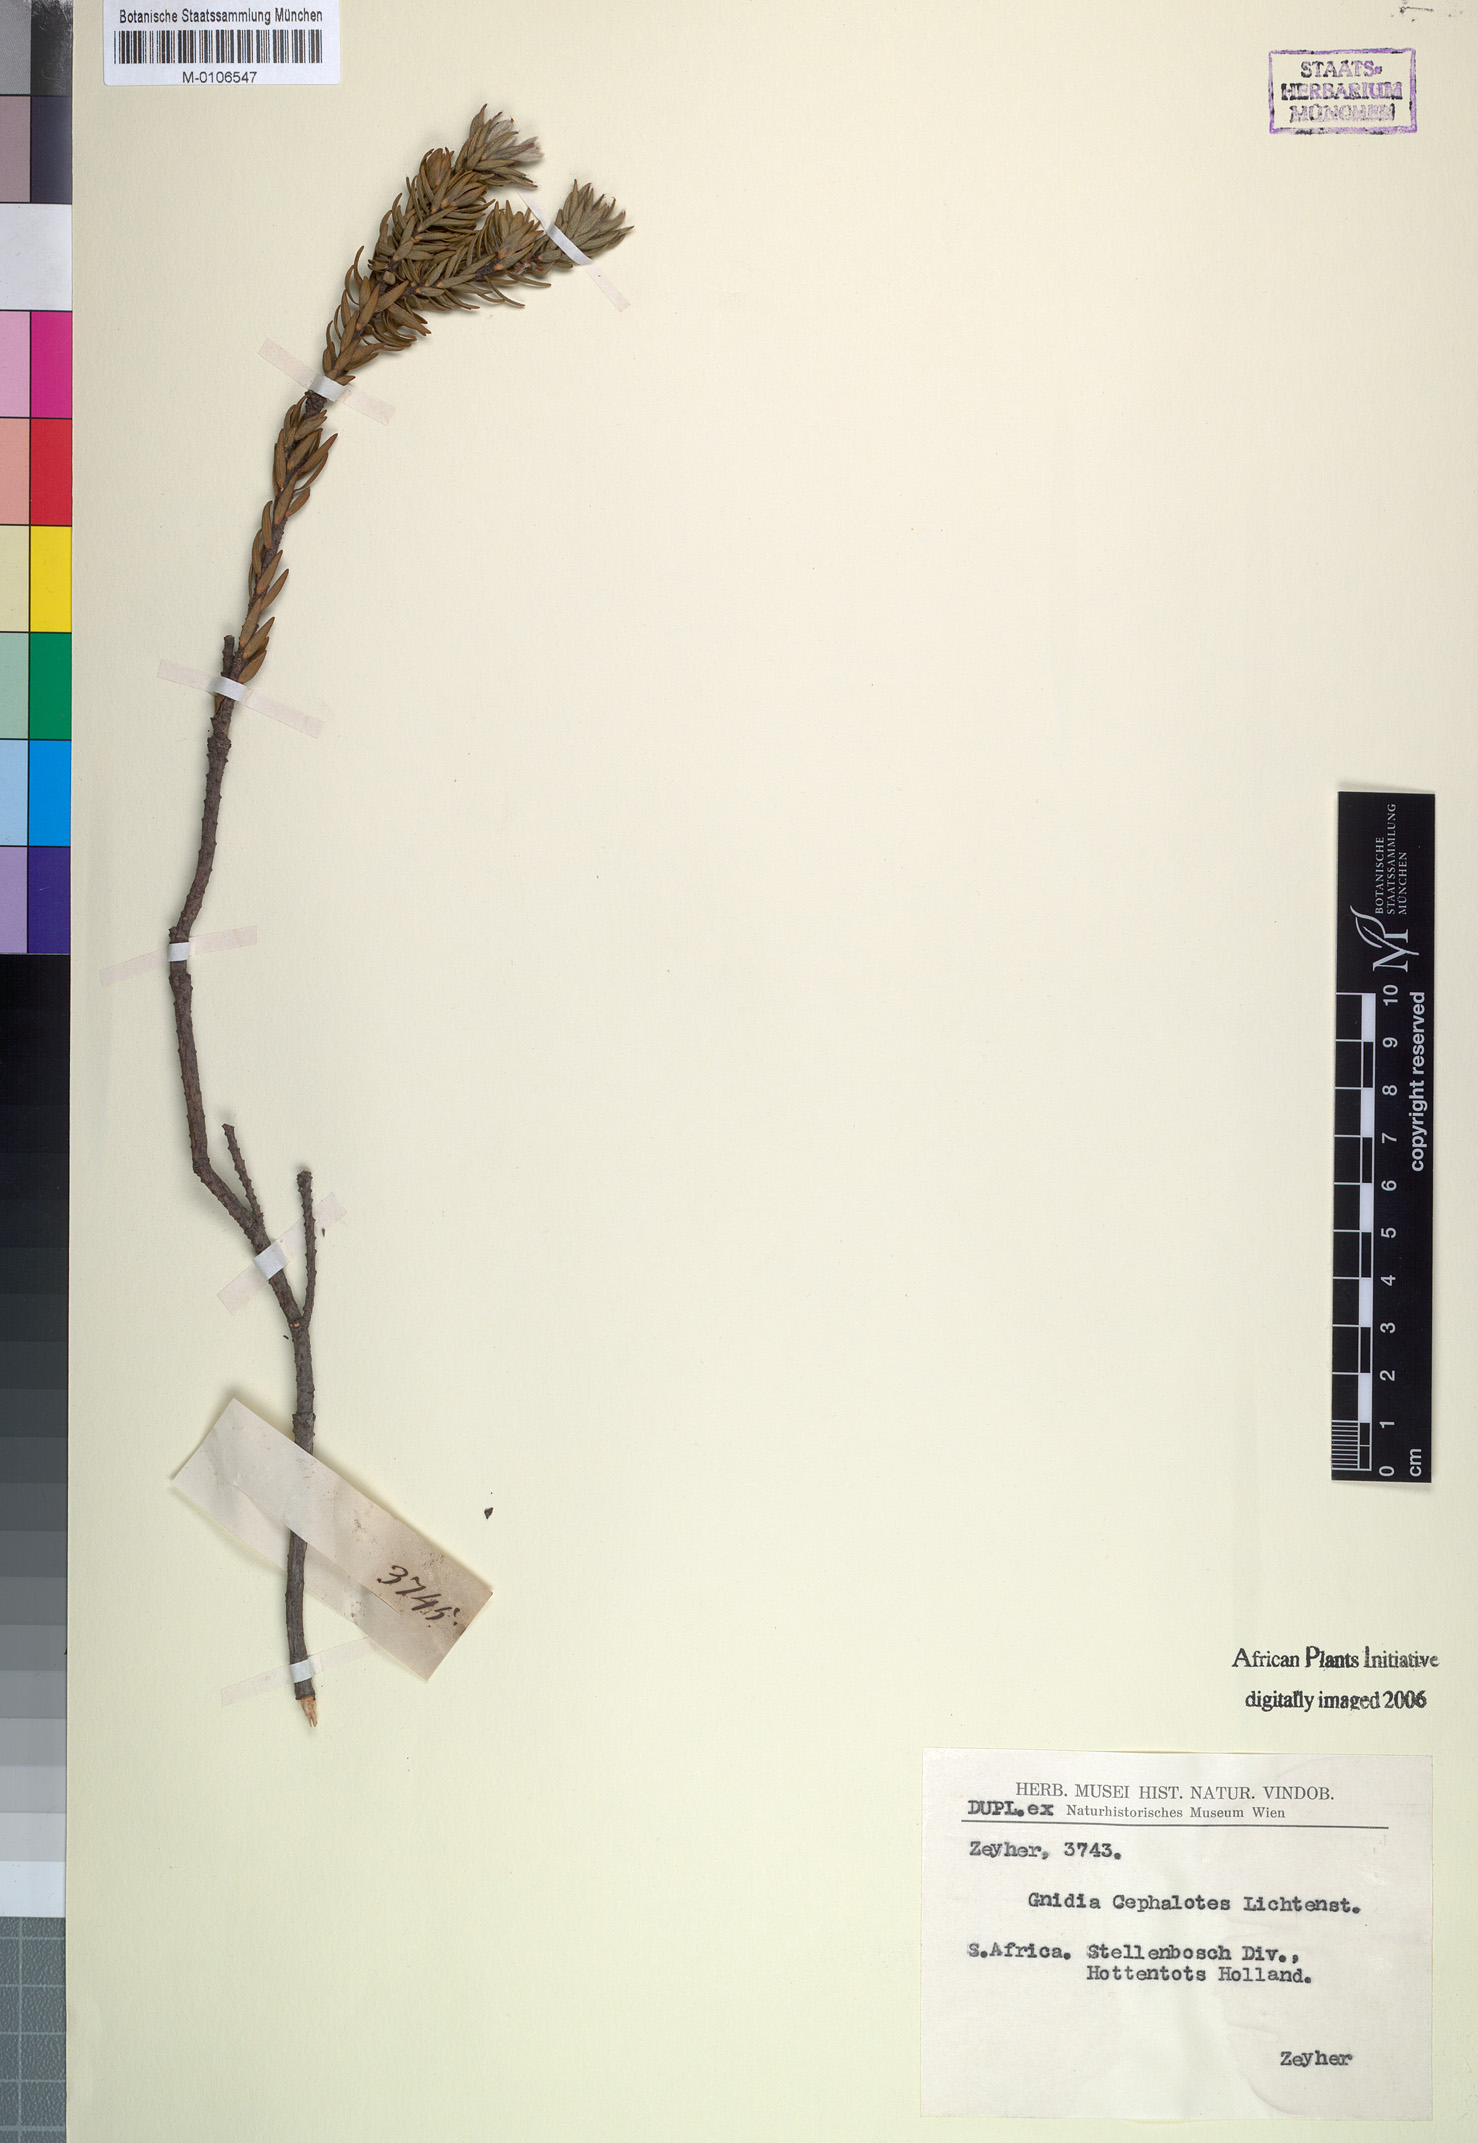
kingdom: Plantae
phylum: Tracheophyta
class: Magnoliopsida
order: Malvales
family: Thymelaeaceae
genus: Lachnaea
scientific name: Lachnaea grandiflora
